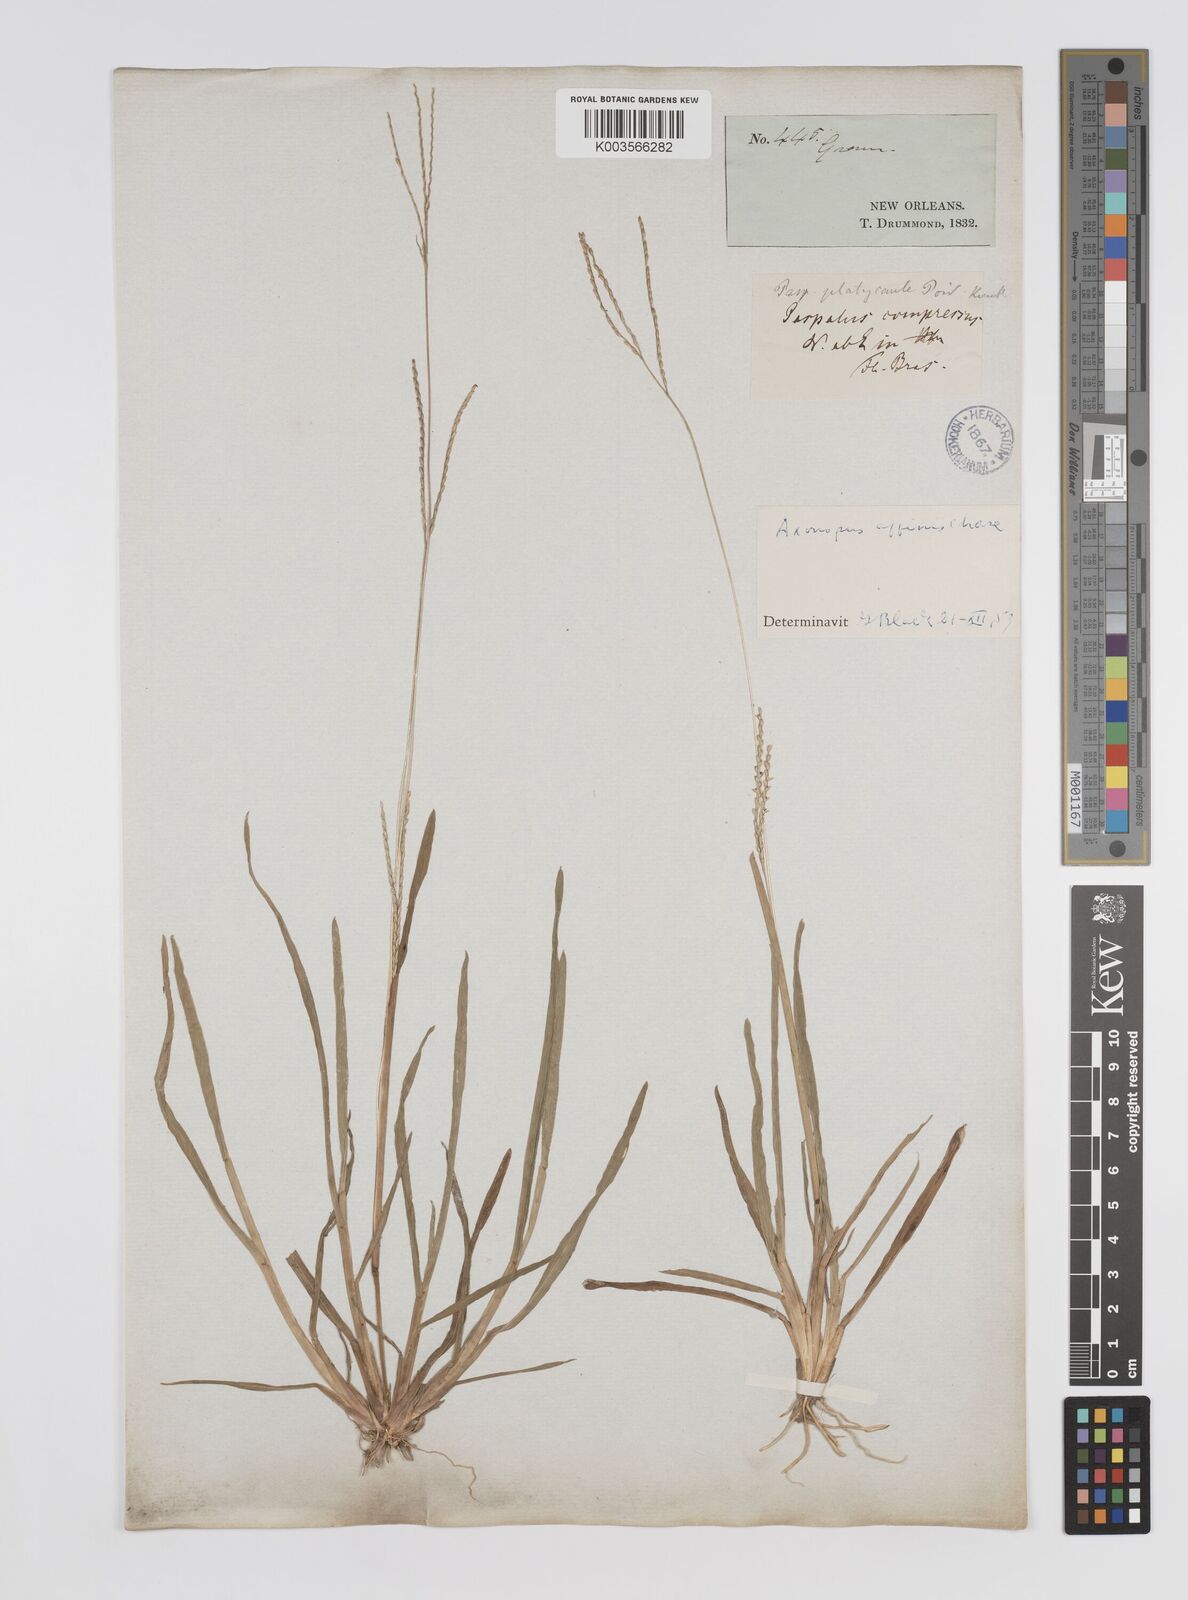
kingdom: Plantae
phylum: Tracheophyta
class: Liliopsida
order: Poales
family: Poaceae
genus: Axonopus
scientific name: Axonopus fissifolius
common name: Common carpetgrass
